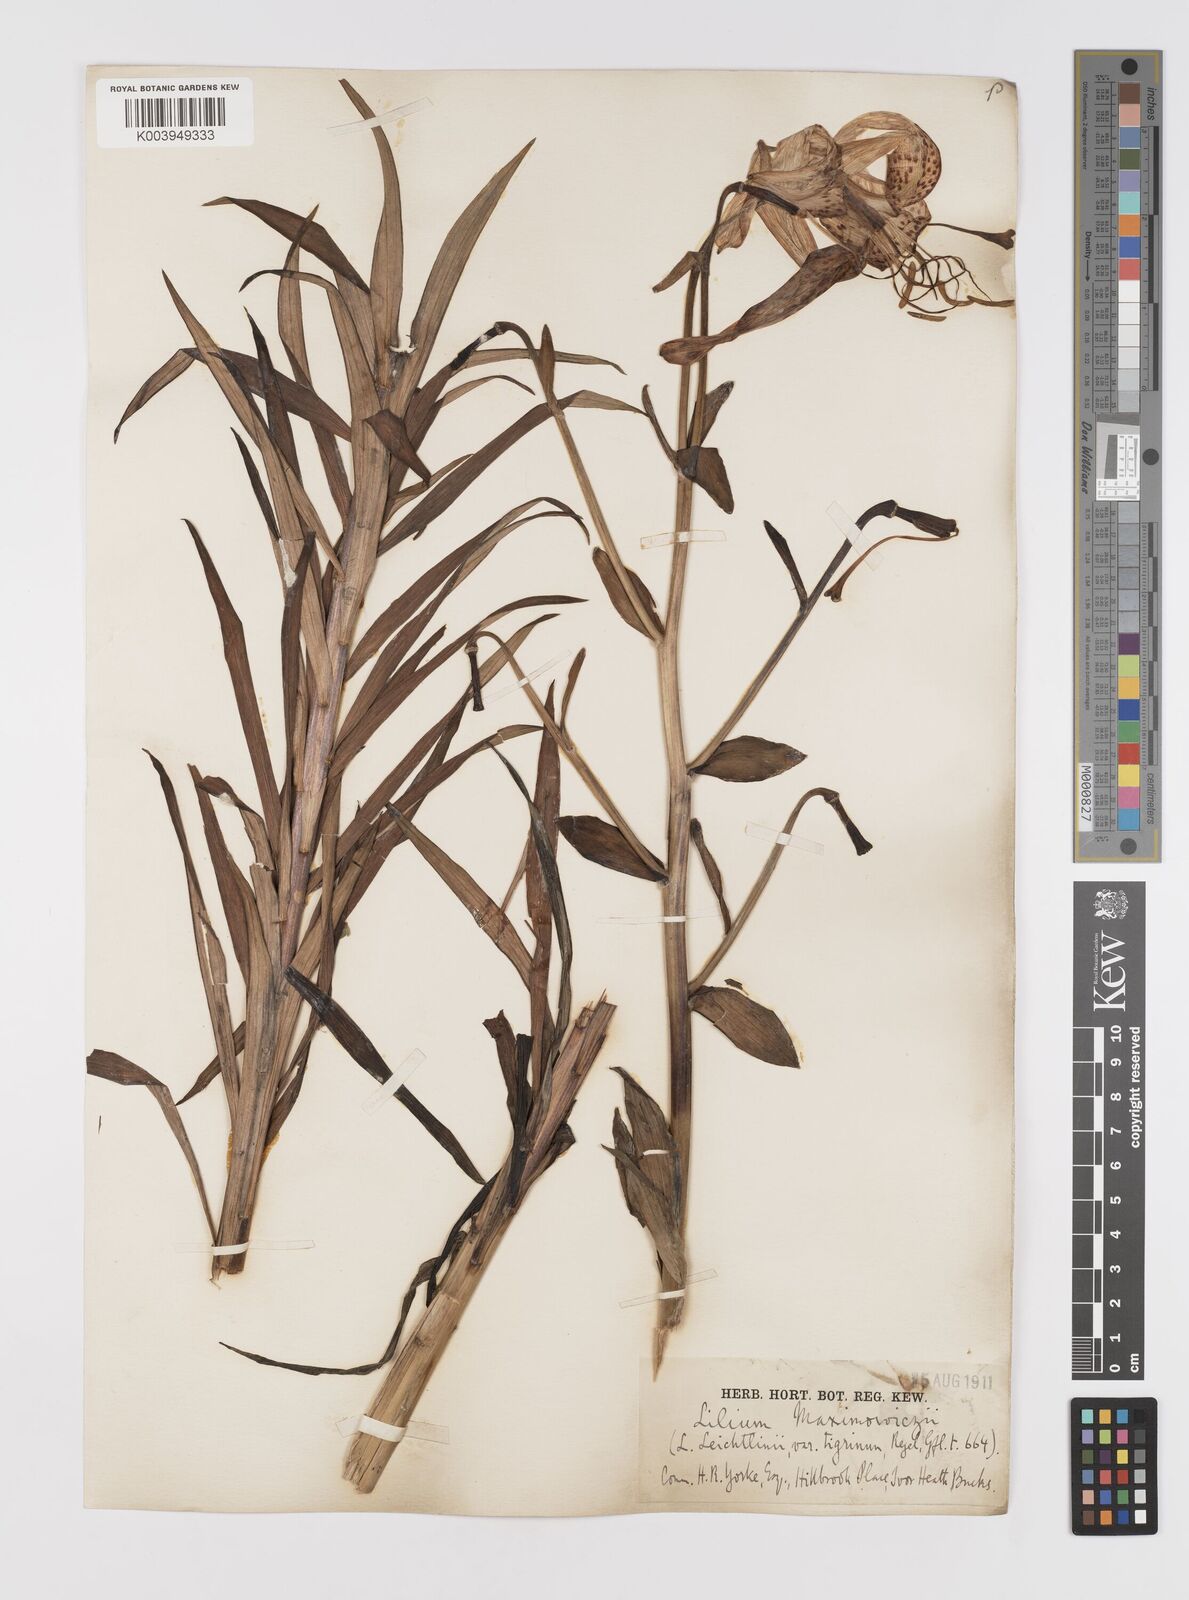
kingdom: Plantae
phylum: Tracheophyta
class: Liliopsida
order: Liliales
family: Liliaceae
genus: Lilium
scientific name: Lilium leichtlinii
